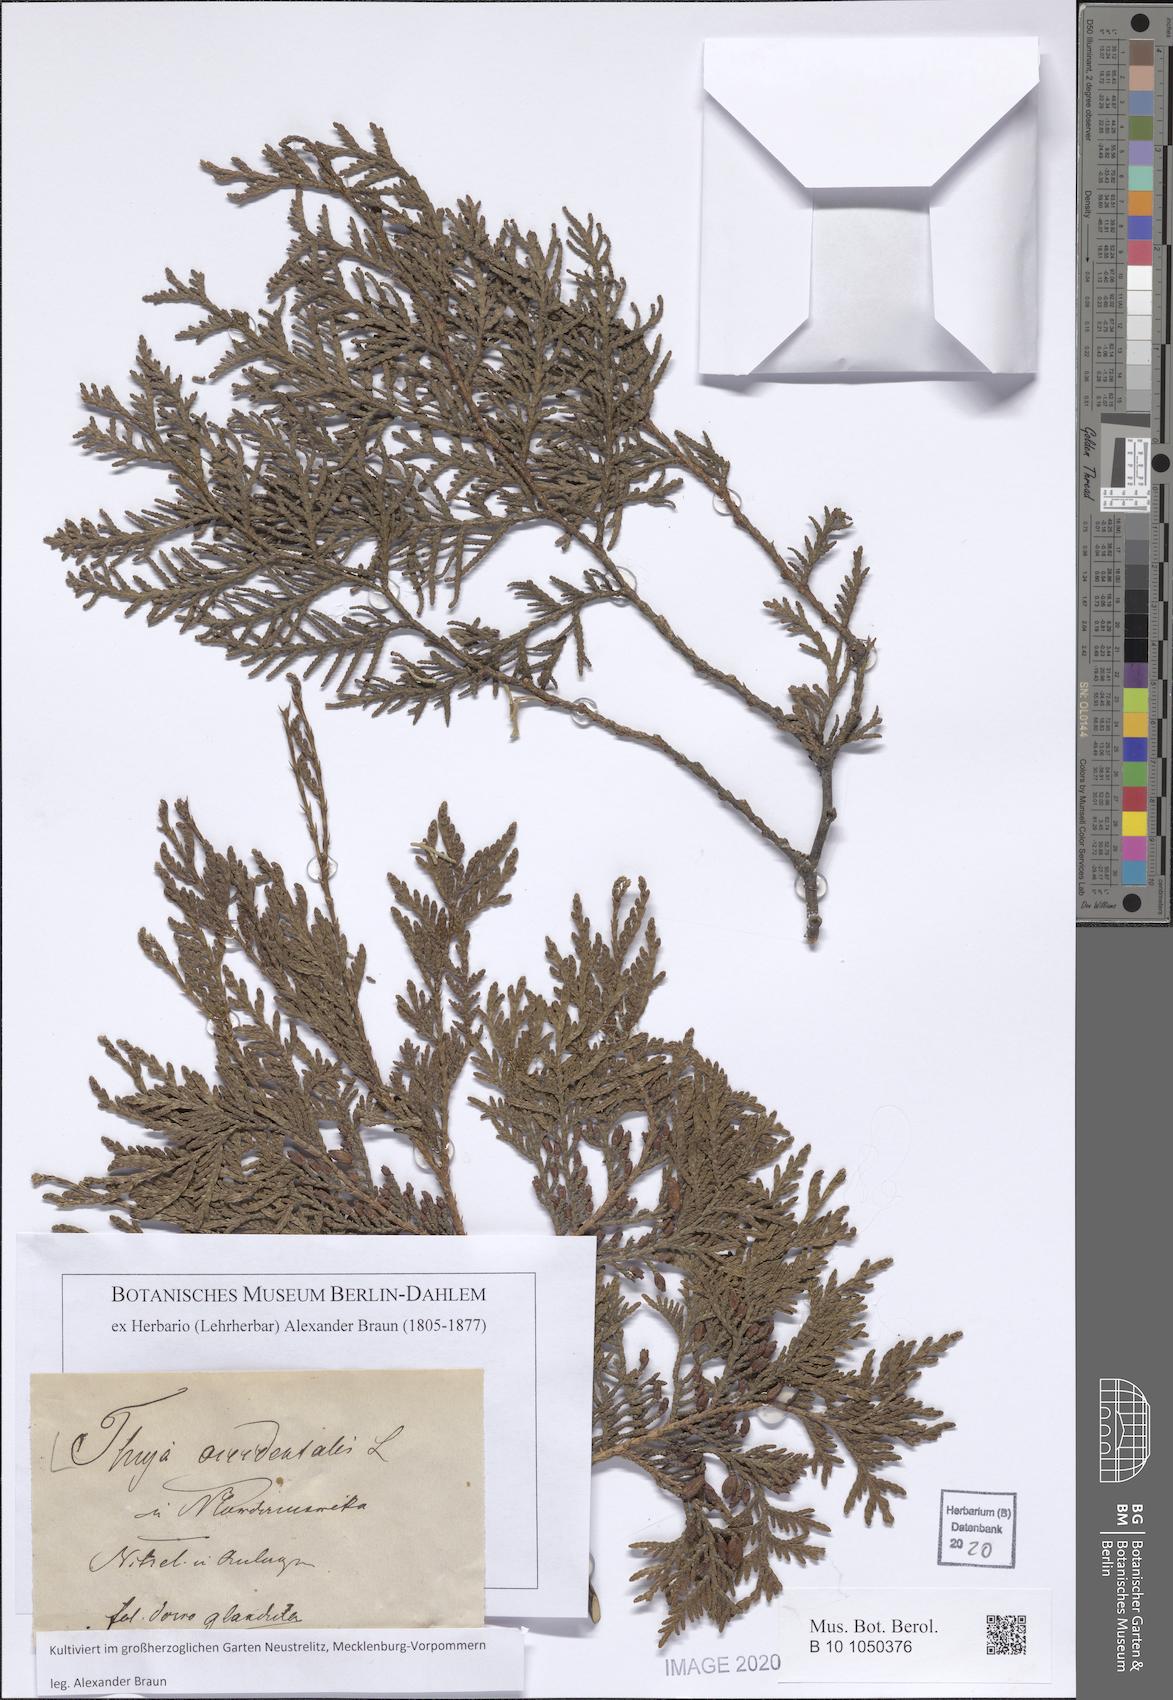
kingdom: Plantae
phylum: Tracheophyta
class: Pinopsida
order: Pinales
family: Cupressaceae
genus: Thuja
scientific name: Thuja occidentalis
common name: Northern white-cedar
